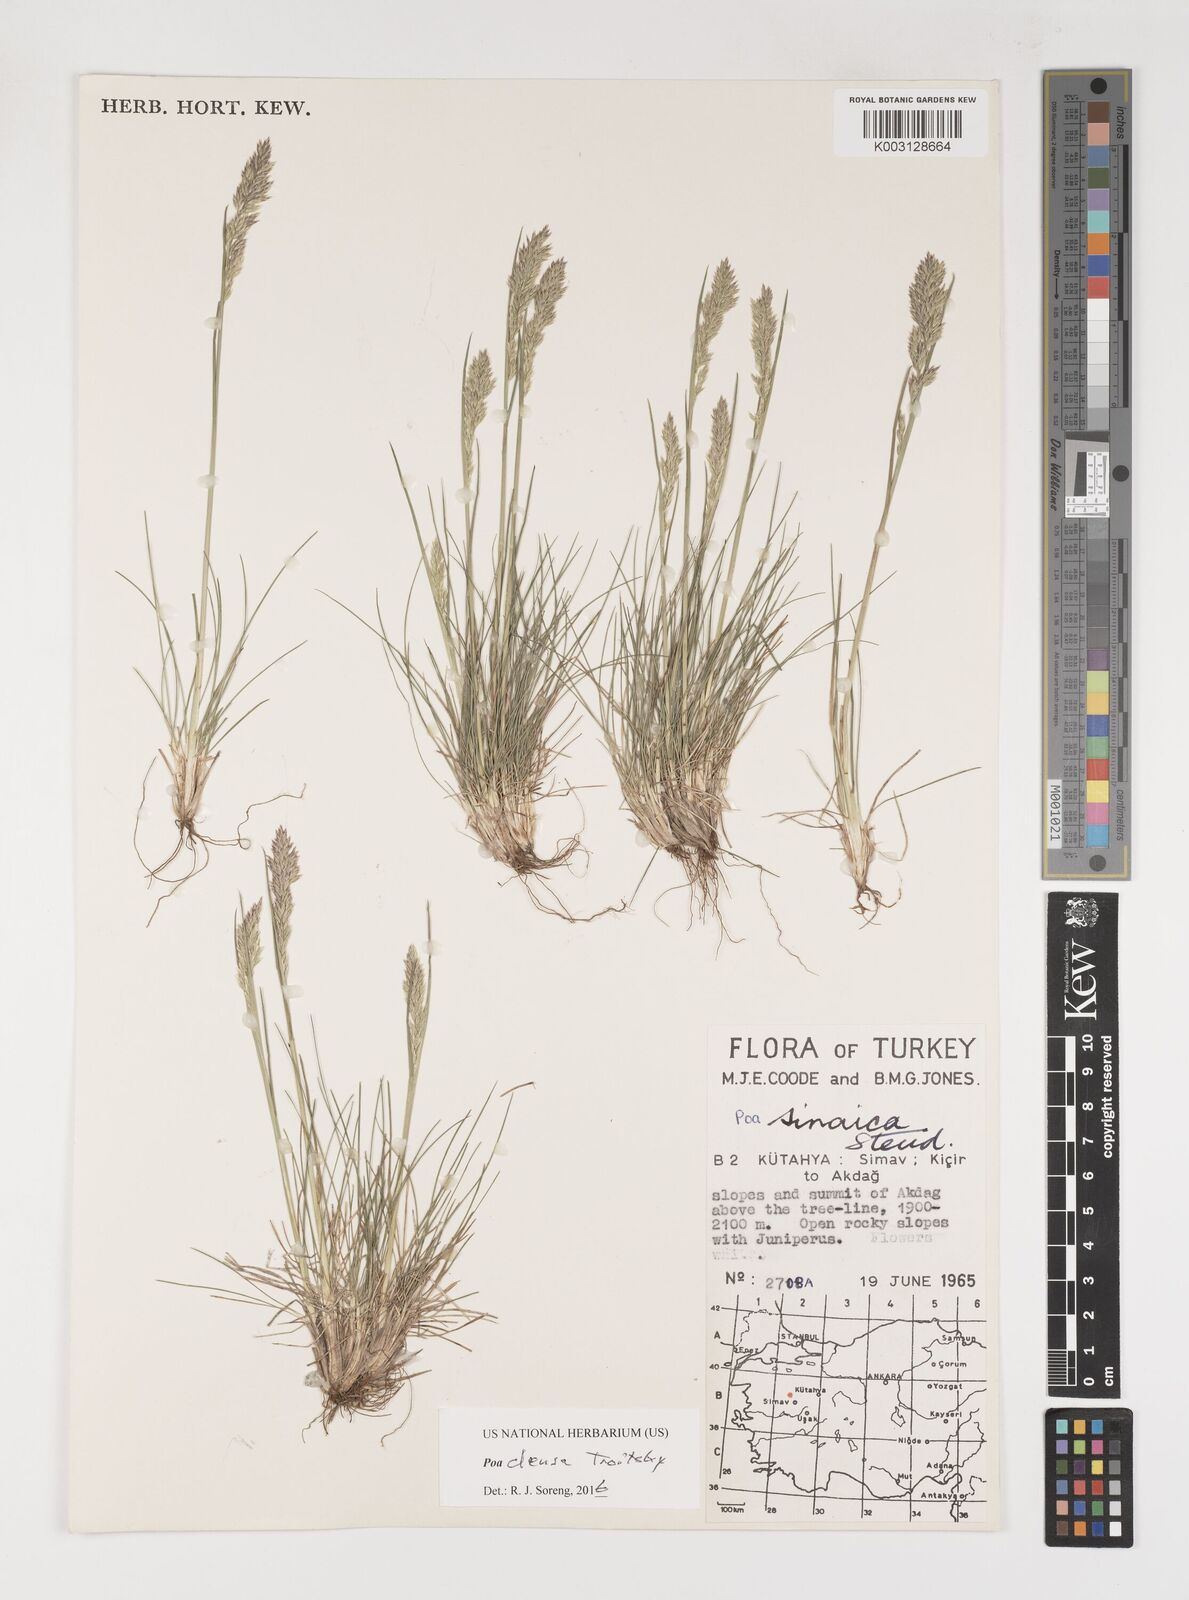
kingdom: Plantae
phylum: Tracheophyta
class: Liliopsida
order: Poales
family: Poaceae
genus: Poa
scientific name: Poa densa
